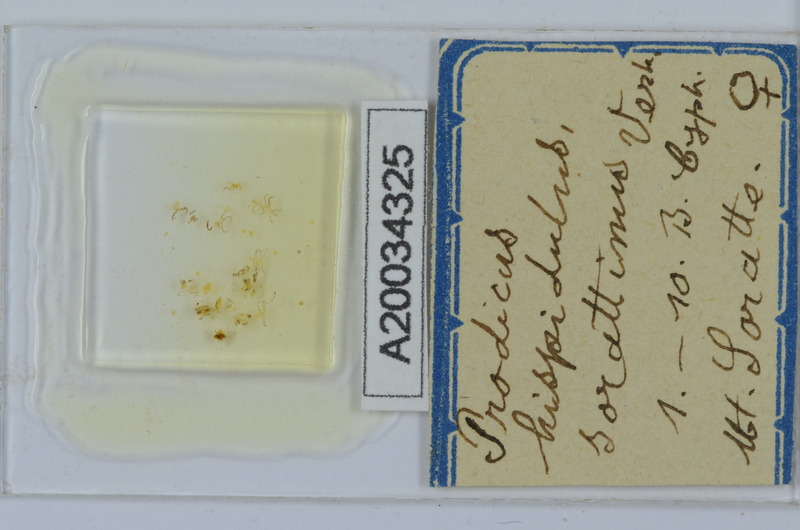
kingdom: Animalia
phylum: Arthropoda
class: Diplopoda
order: Chordeumatida
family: Anthroleucosomatidae
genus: Anamastigona
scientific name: Anamastigona hispidula
